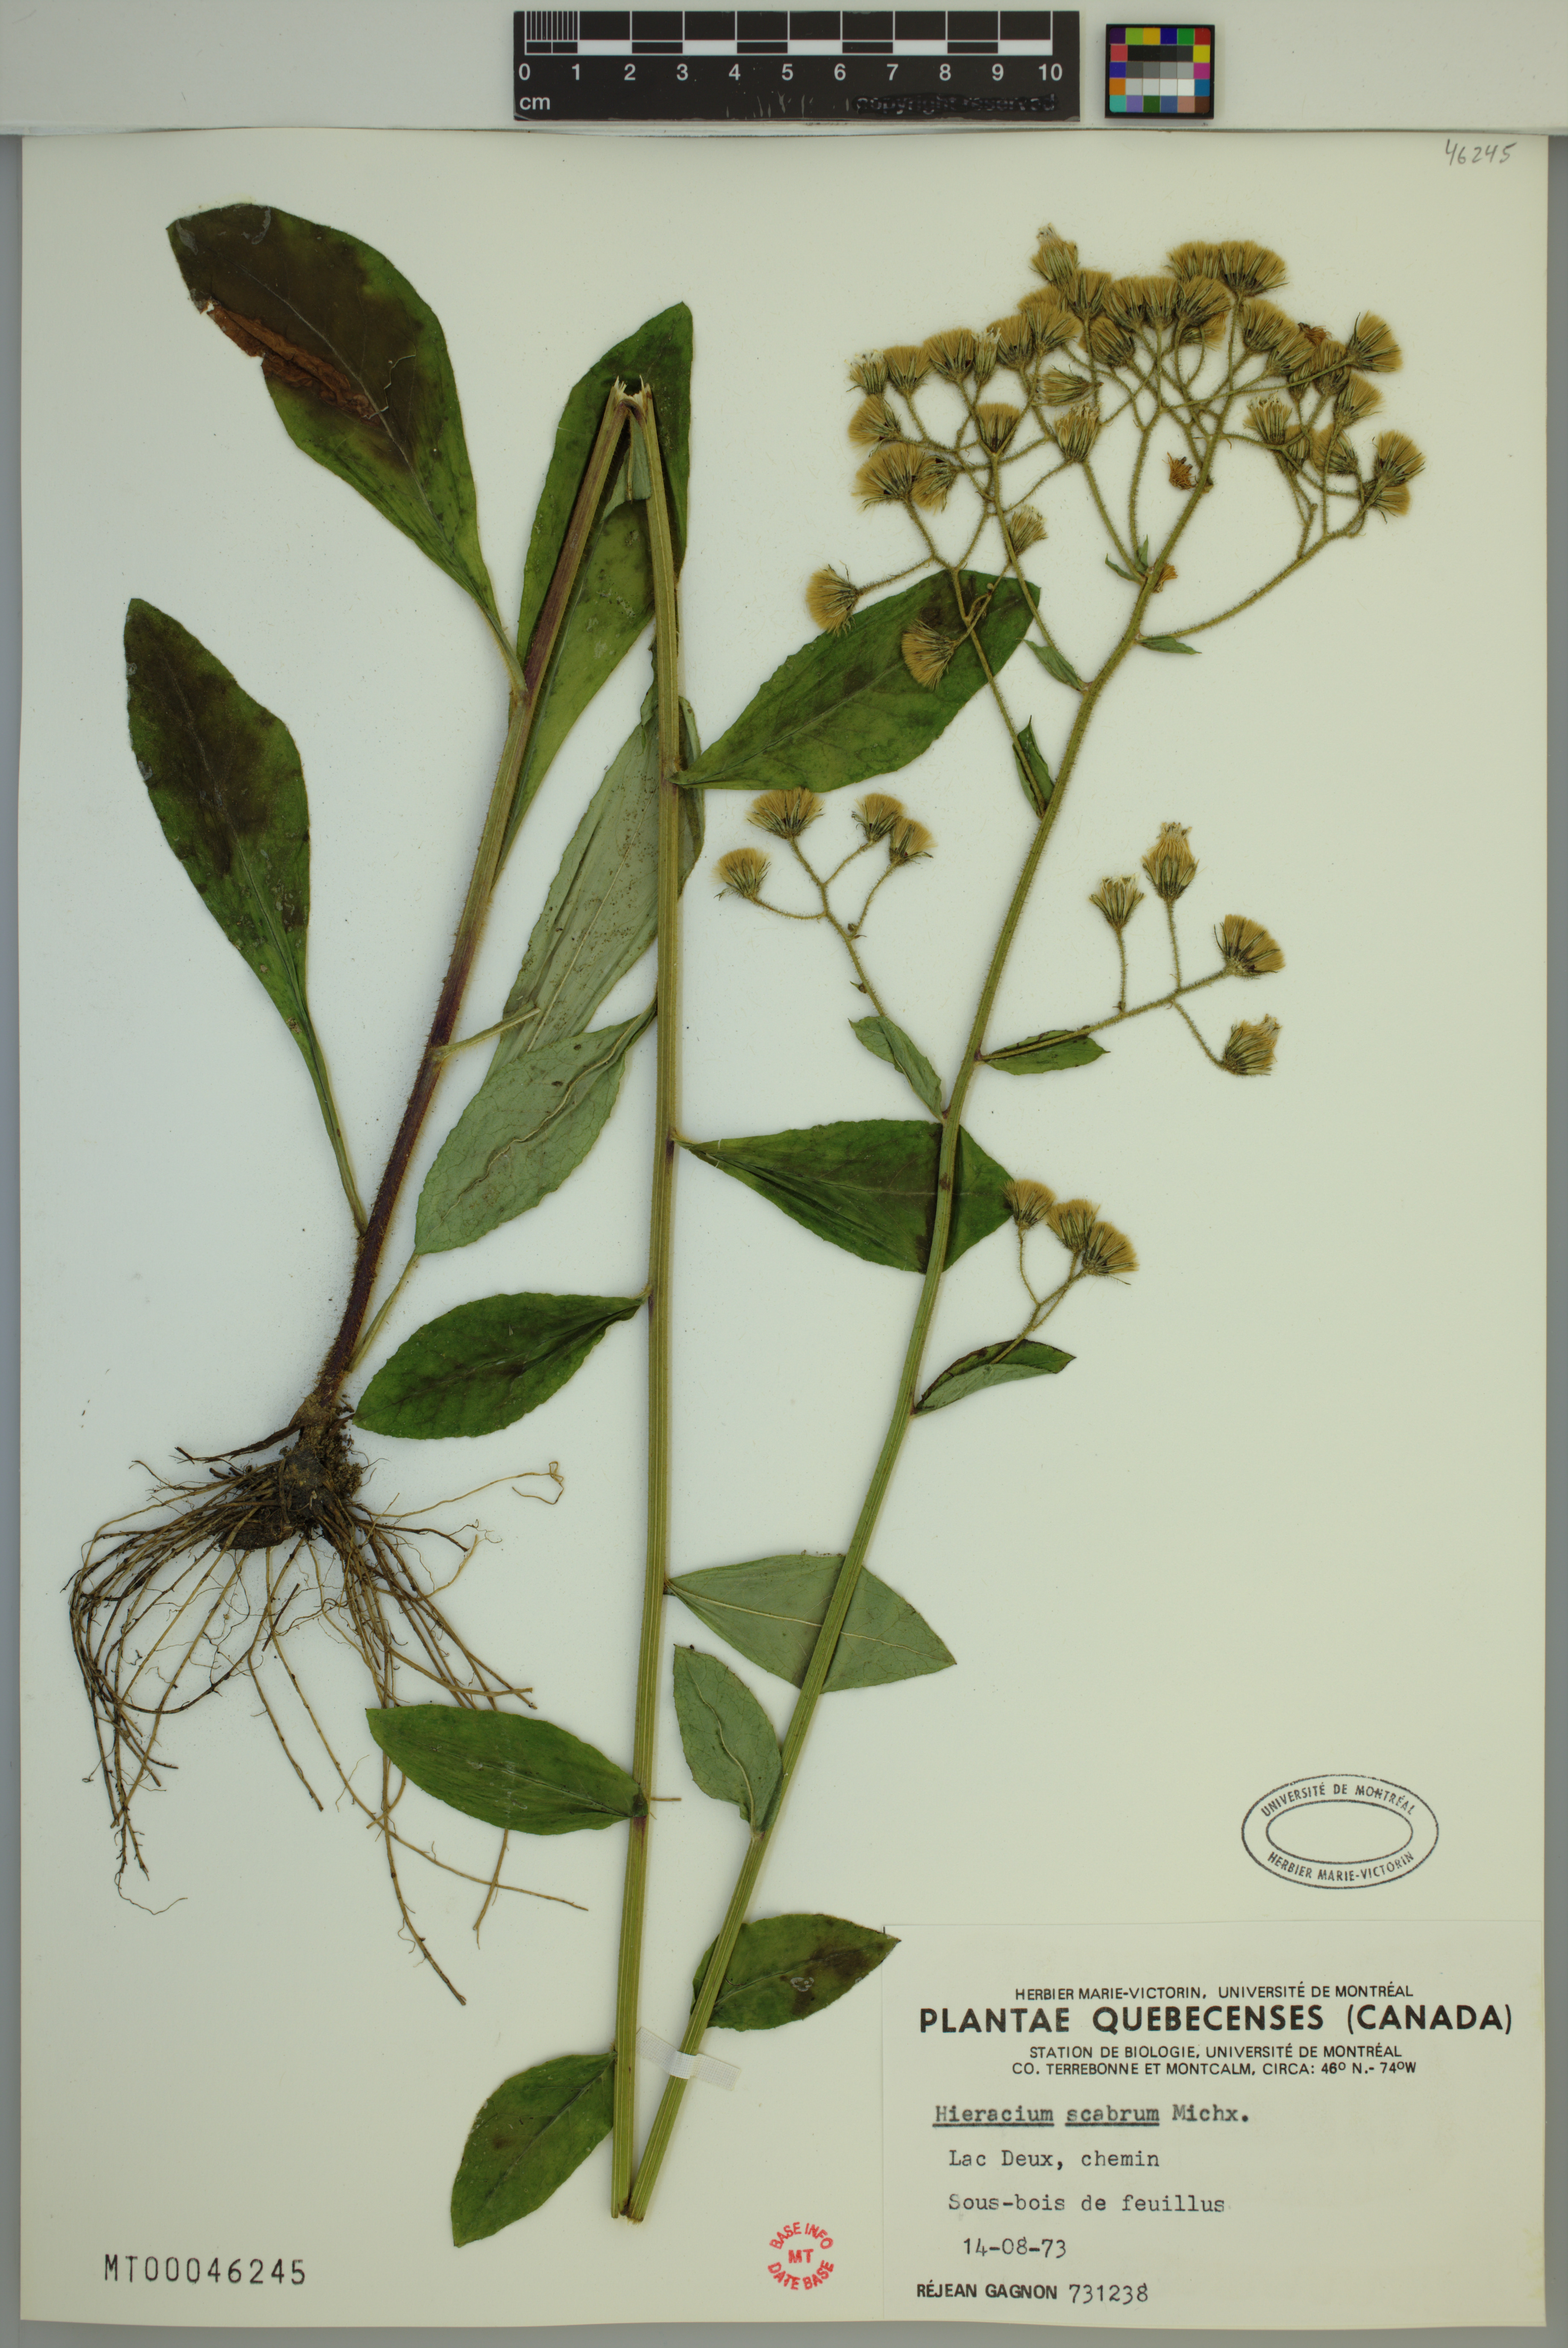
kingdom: Plantae
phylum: Tracheophyta
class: Magnoliopsida
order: Asterales
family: Asteraceae
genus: Hieracium
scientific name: Hieracium scabrum
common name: Rough hawkweed
